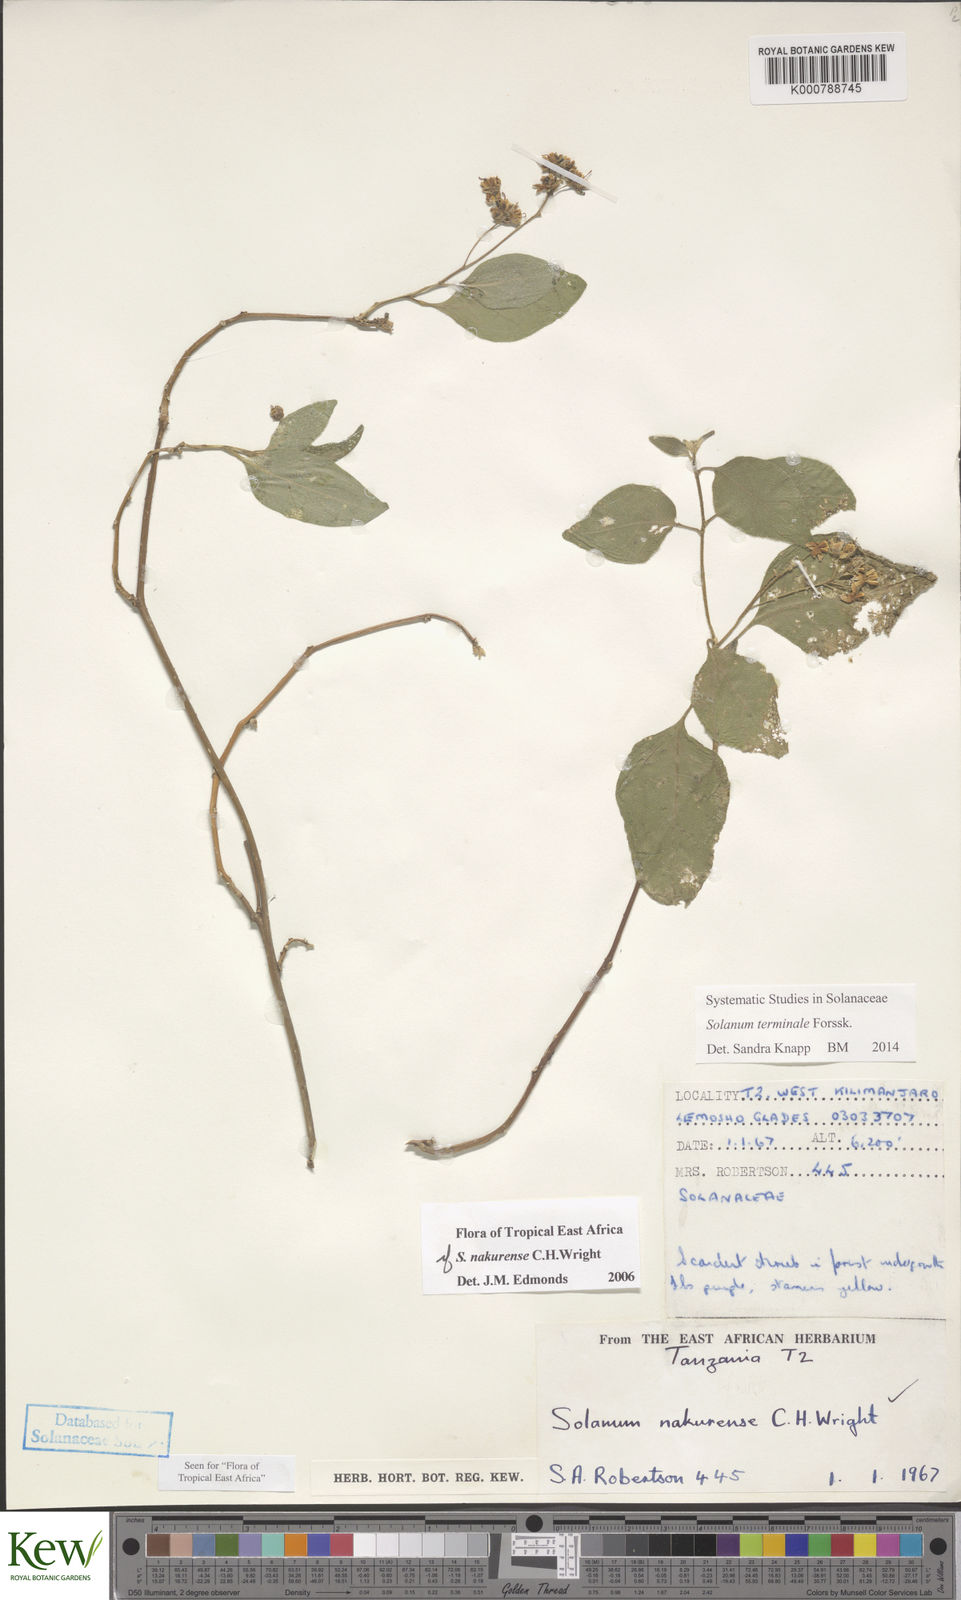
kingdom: Plantae
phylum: Tracheophyta
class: Magnoliopsida
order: Solanales
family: Solanaceae
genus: Solanum
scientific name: Solanum terminale
